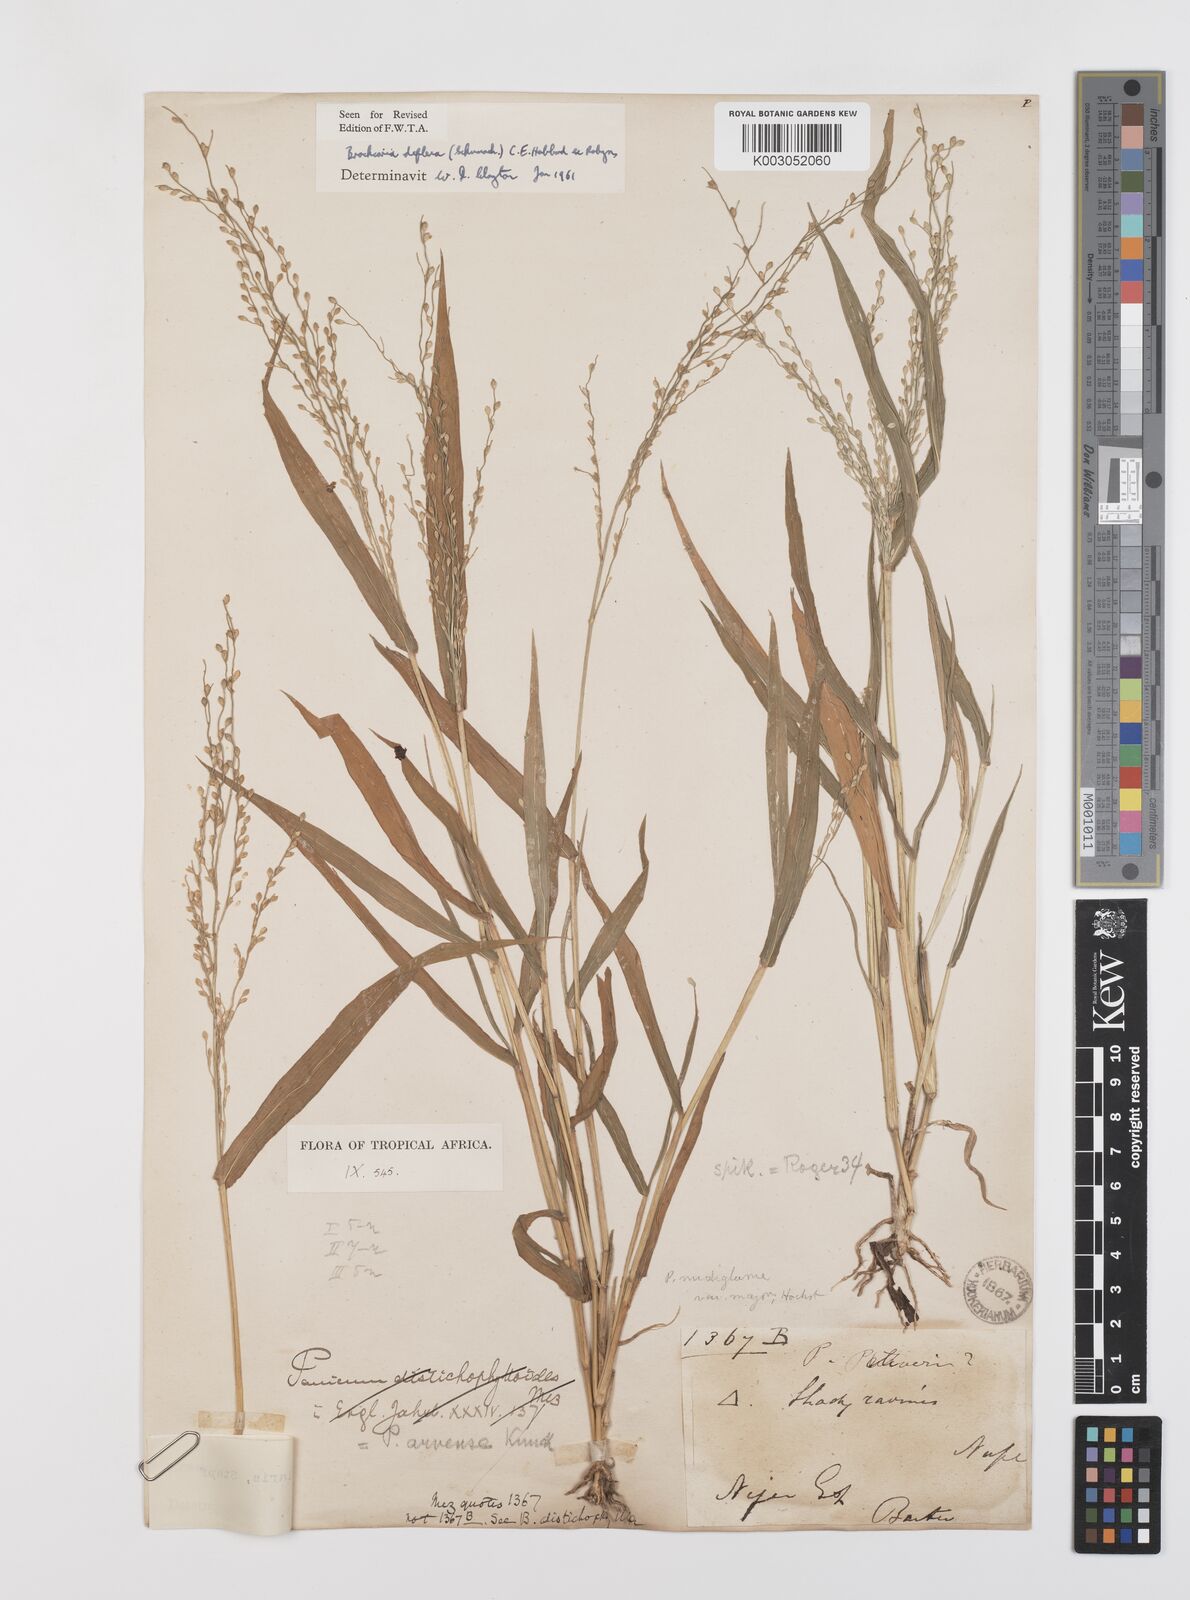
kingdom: Plantae
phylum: Tracheophyta
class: Liliopsida
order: Poales
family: Poaceae
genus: Urochloa
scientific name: Urochloa deflexa
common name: Guinea millet
